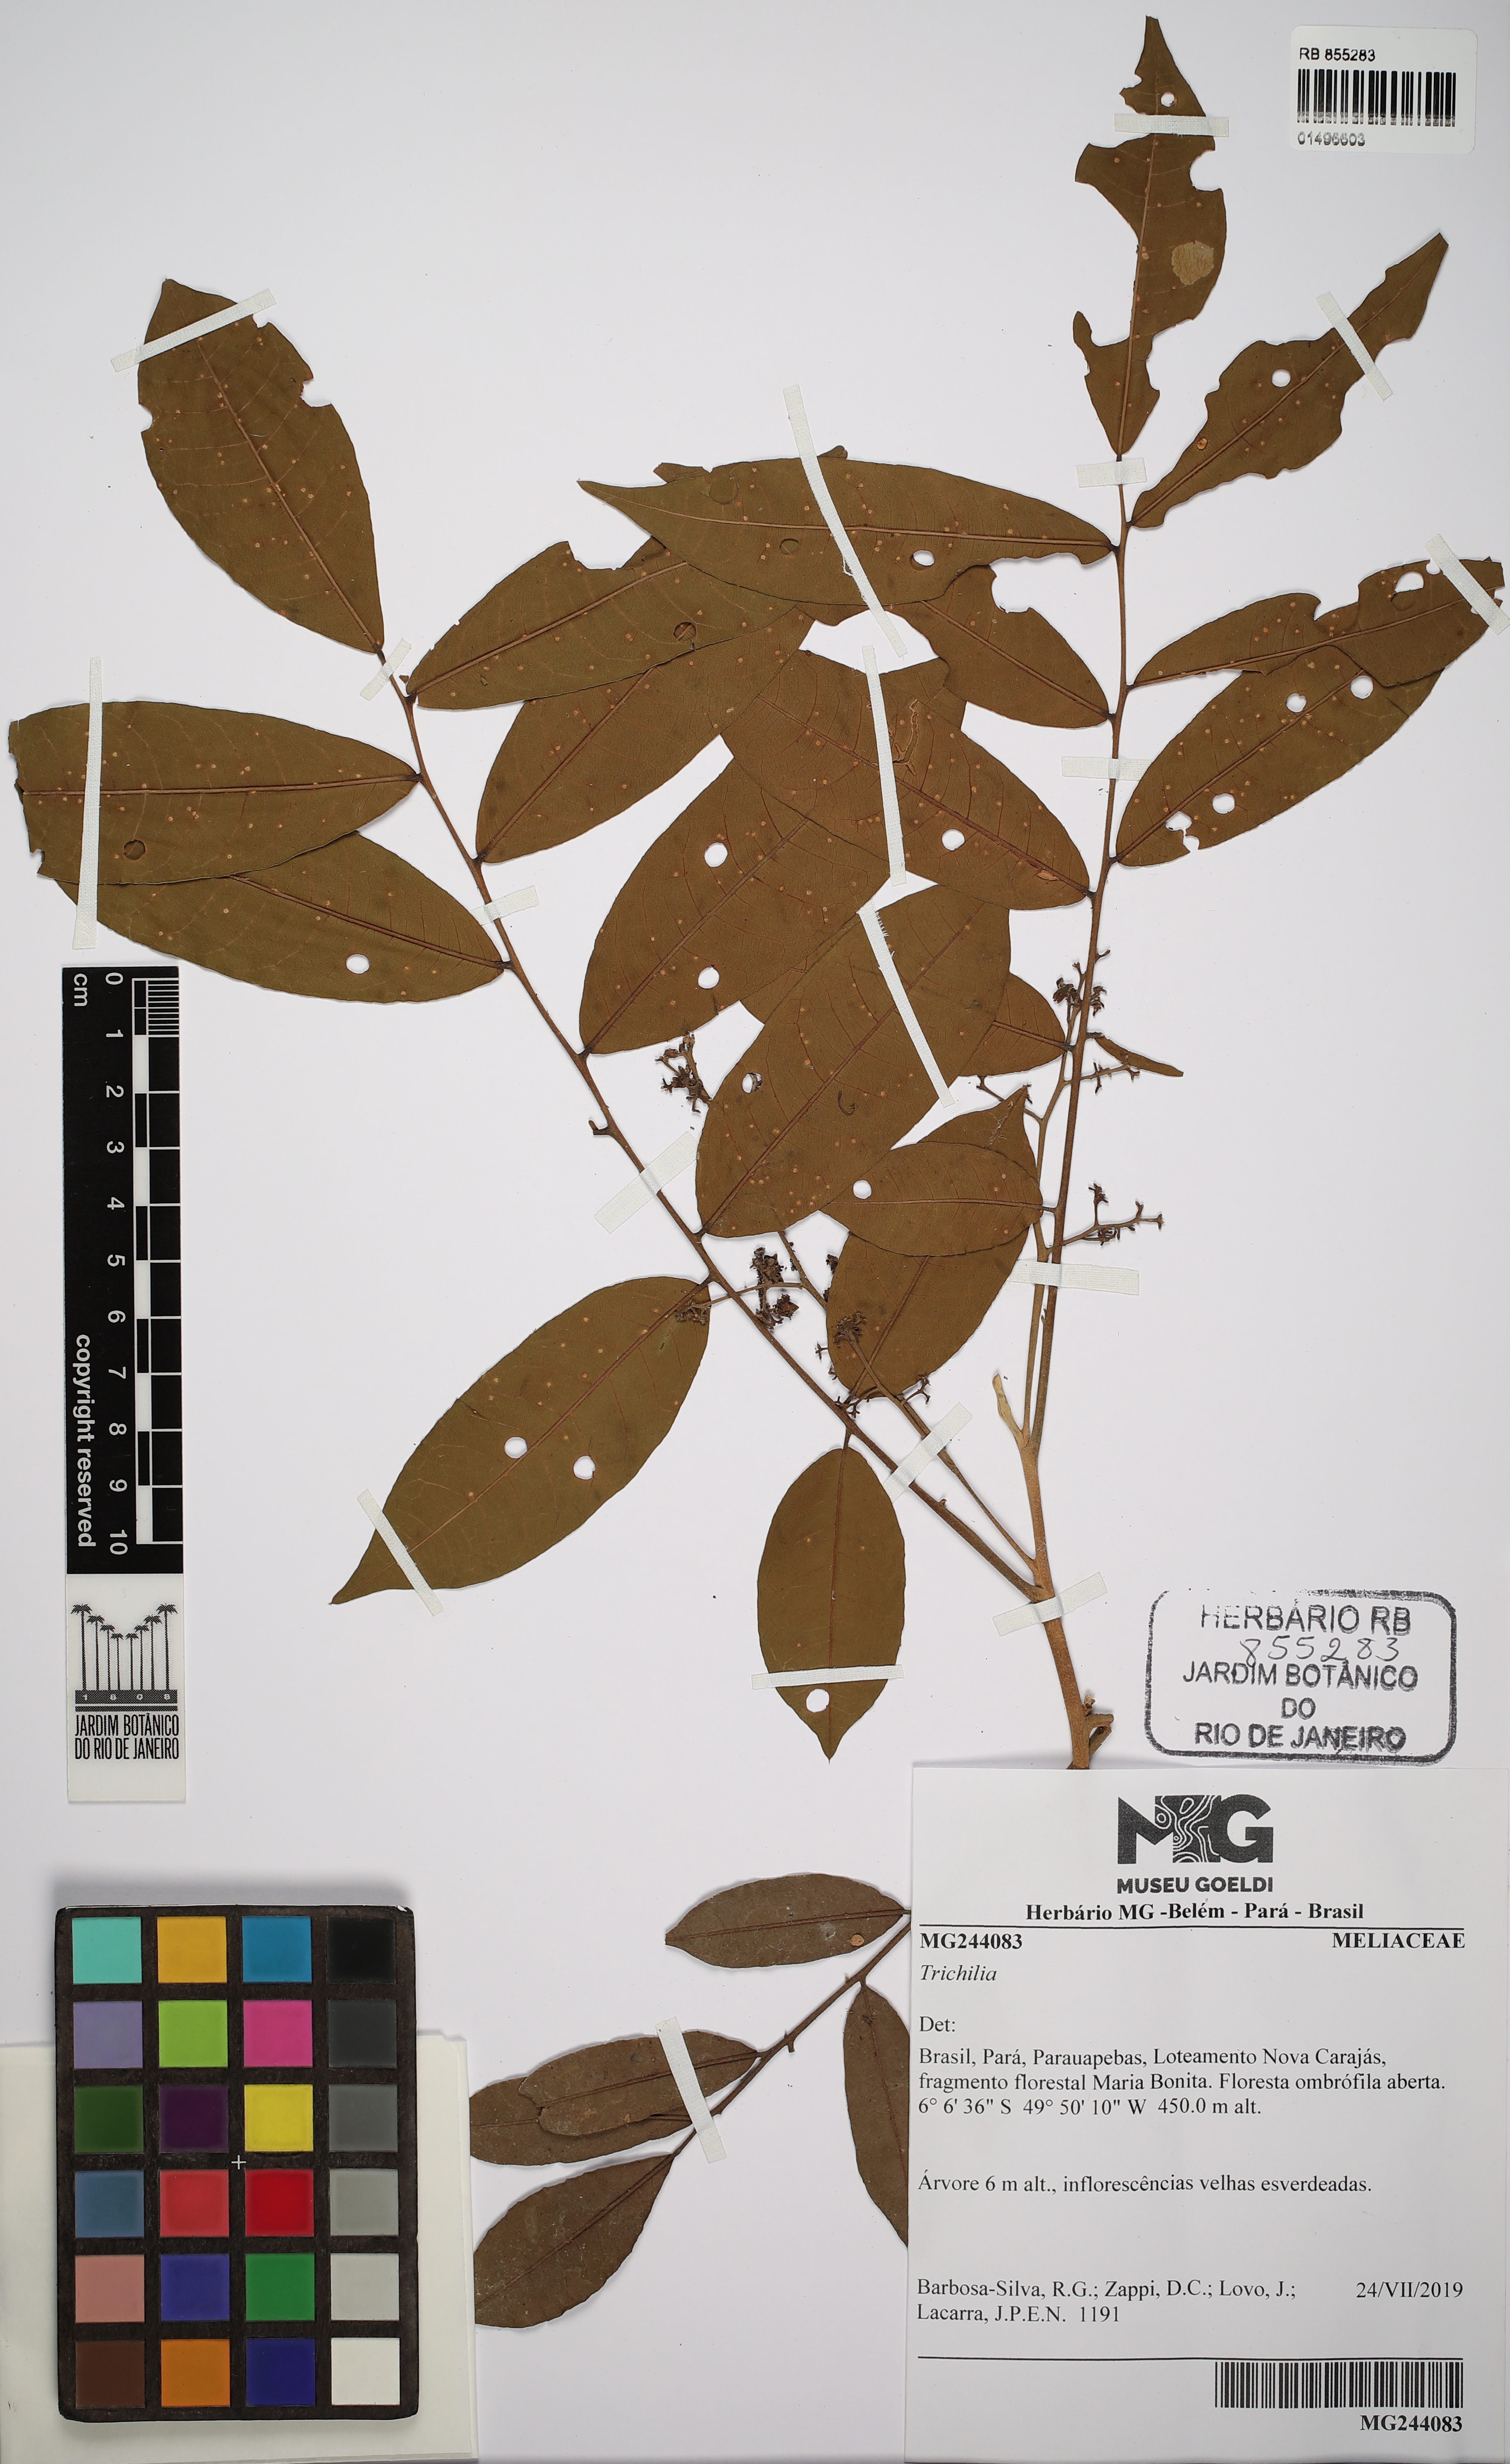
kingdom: Plantae
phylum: Tracheophyta
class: Magnoliopsida
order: Sapindales
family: Meliaceae
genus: Trichilia
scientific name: Trichilia
